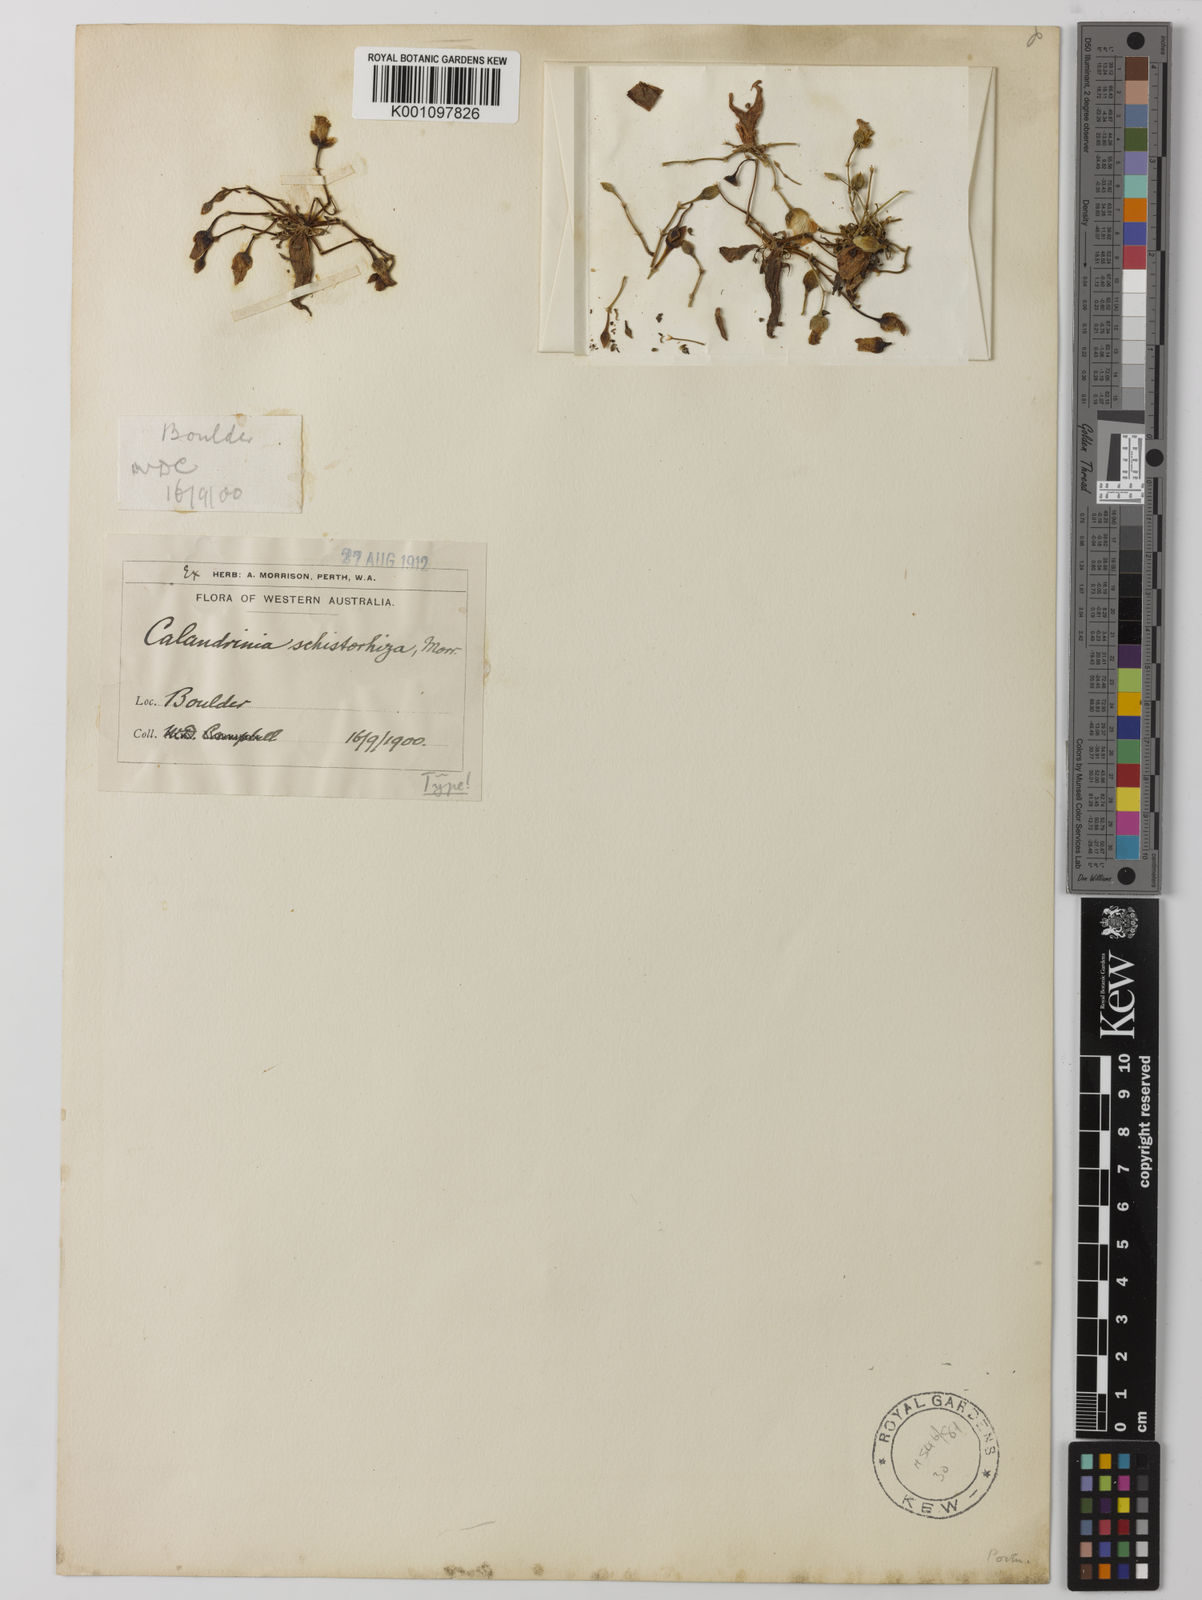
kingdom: Plantae
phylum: Tracheophyta
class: Magnoliopsida
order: Caryophyllales
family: Montiaceae
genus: Rumicastrum
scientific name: Rumicastrum schistorhizum
